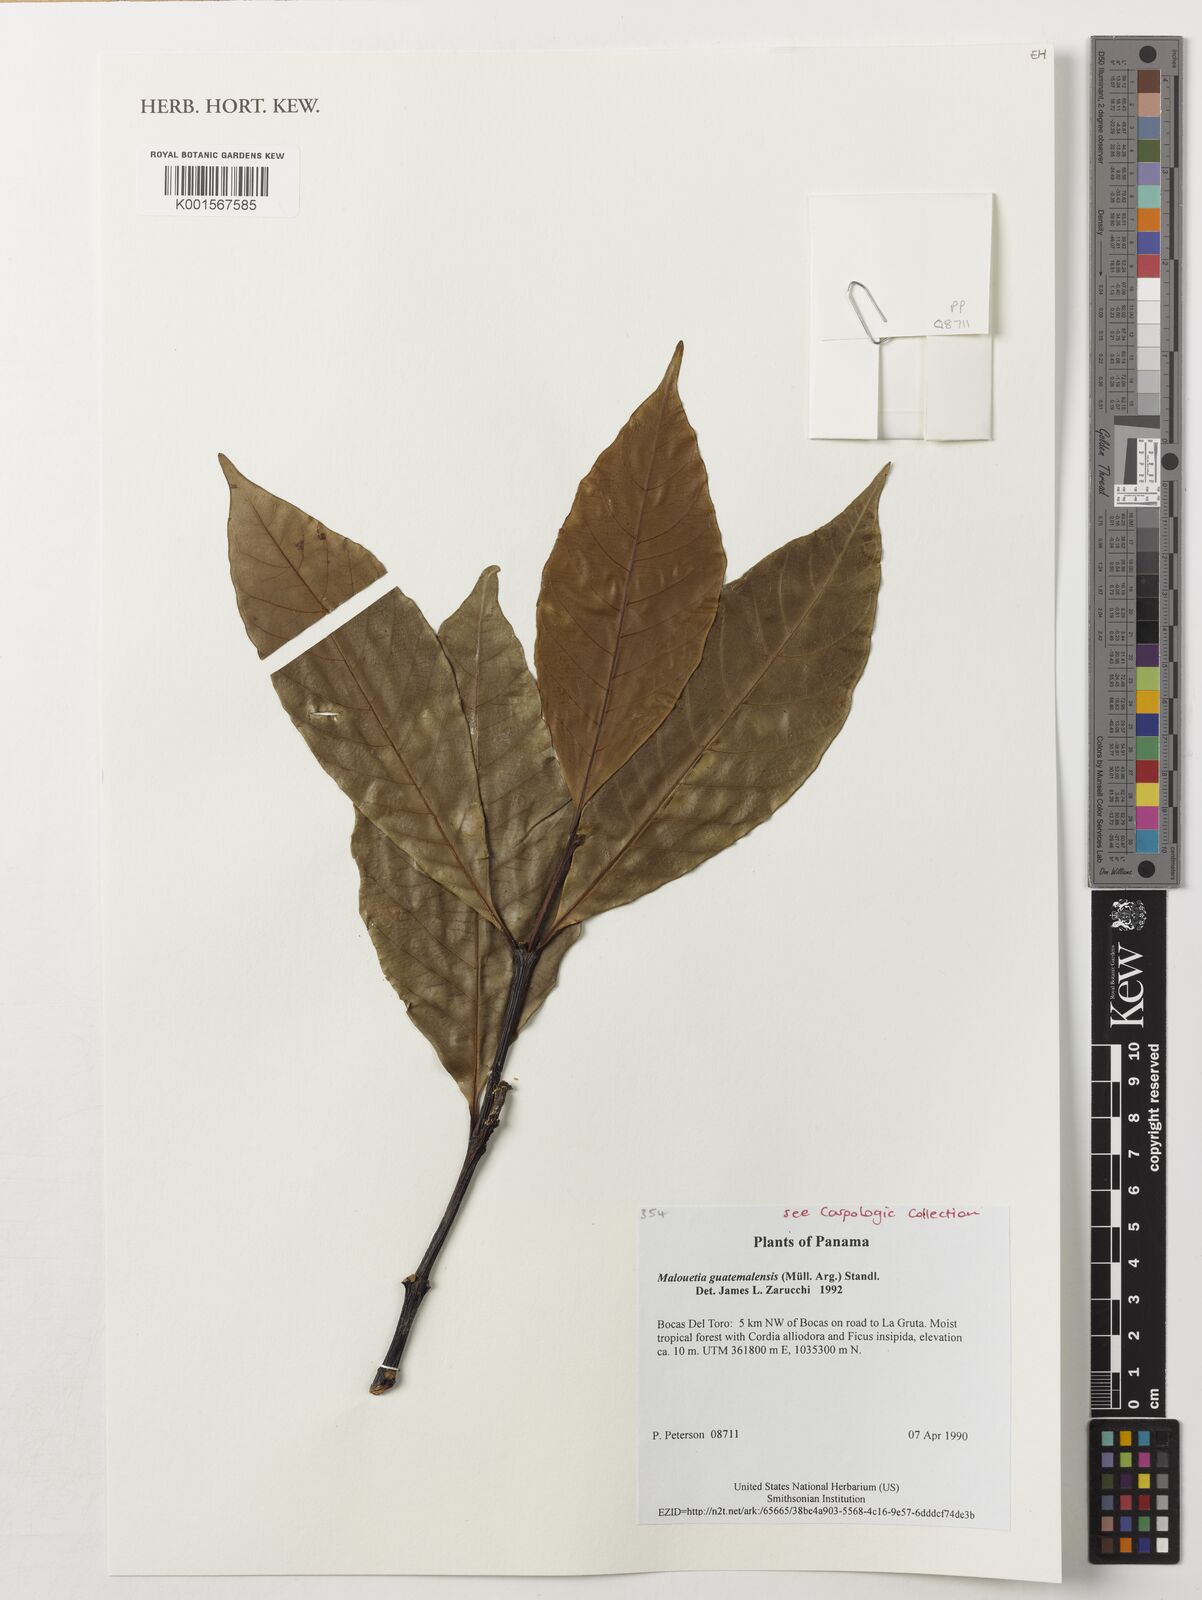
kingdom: Plantae
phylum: Tracheophyta
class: Magnoliopsida
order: Gentianales
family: Apocynaceae
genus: Malouetia
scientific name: Malouetia guatemalensis
